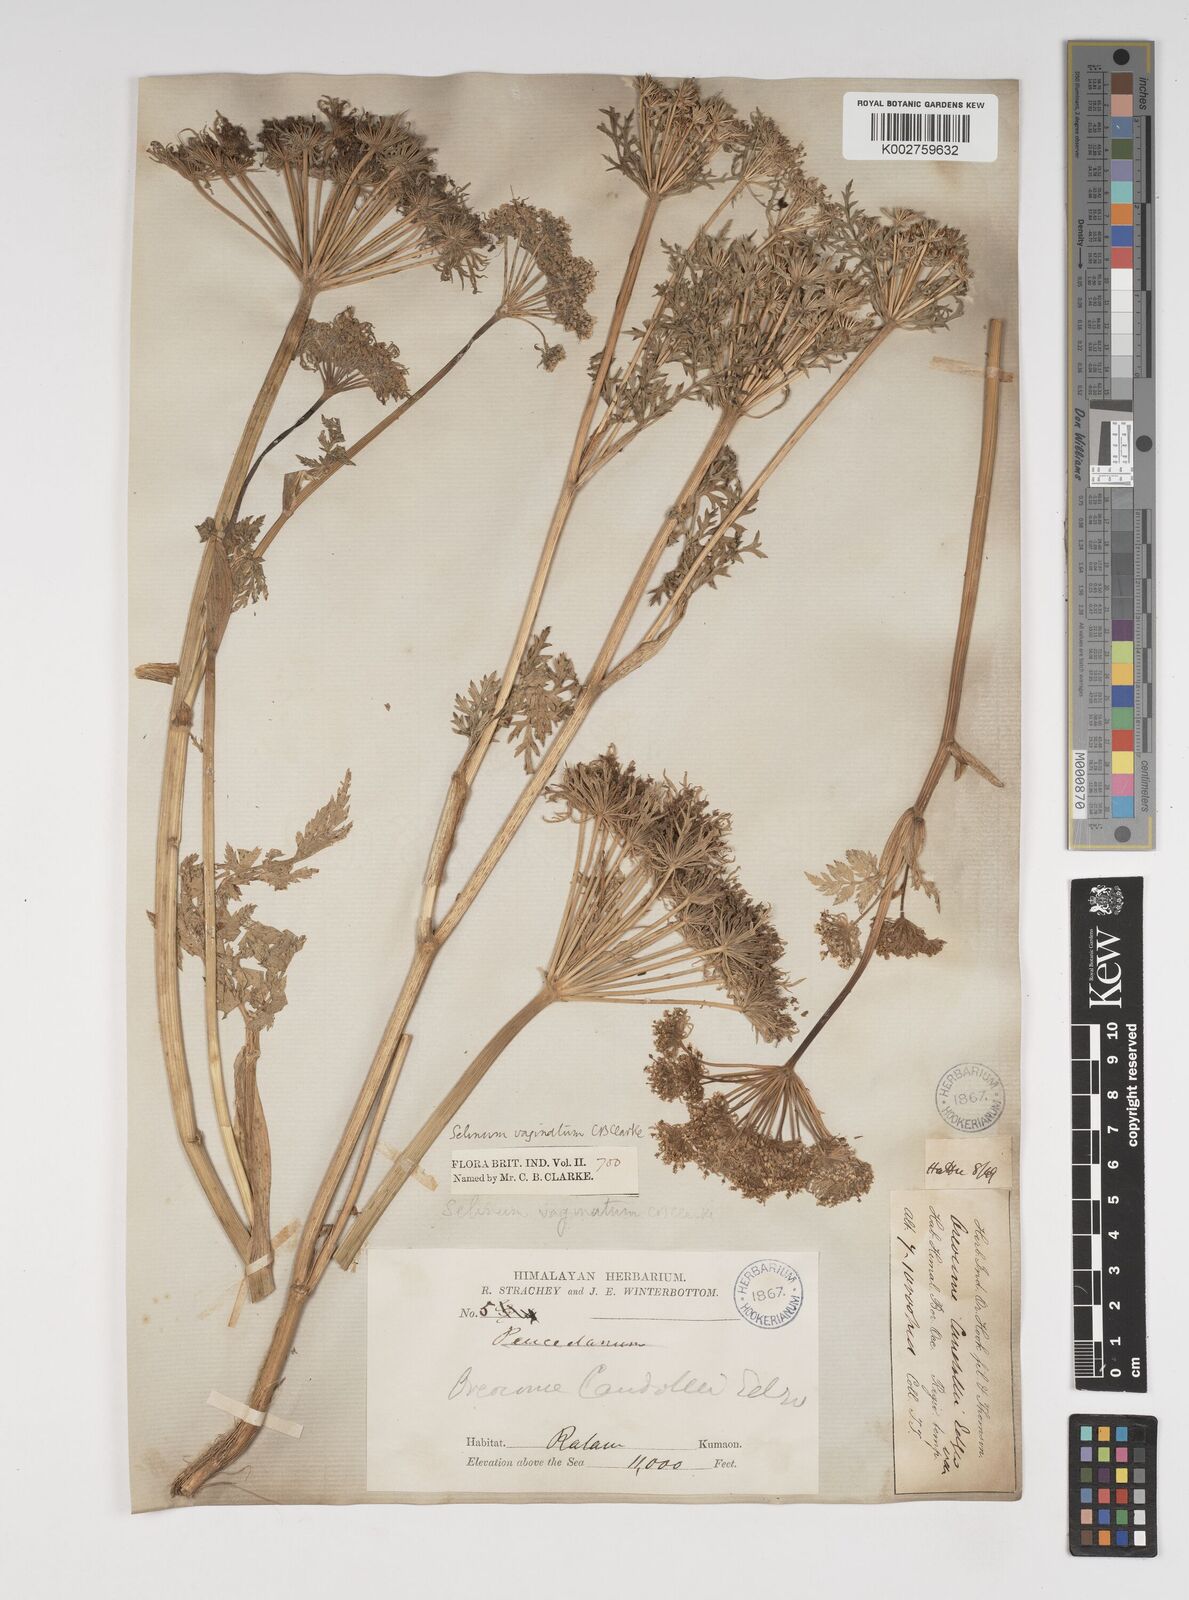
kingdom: Plantae
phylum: Tracheophyta
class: Magnoliopsida
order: Apiales
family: Apiaceae
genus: Selinum
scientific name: Selinum vaginatum
